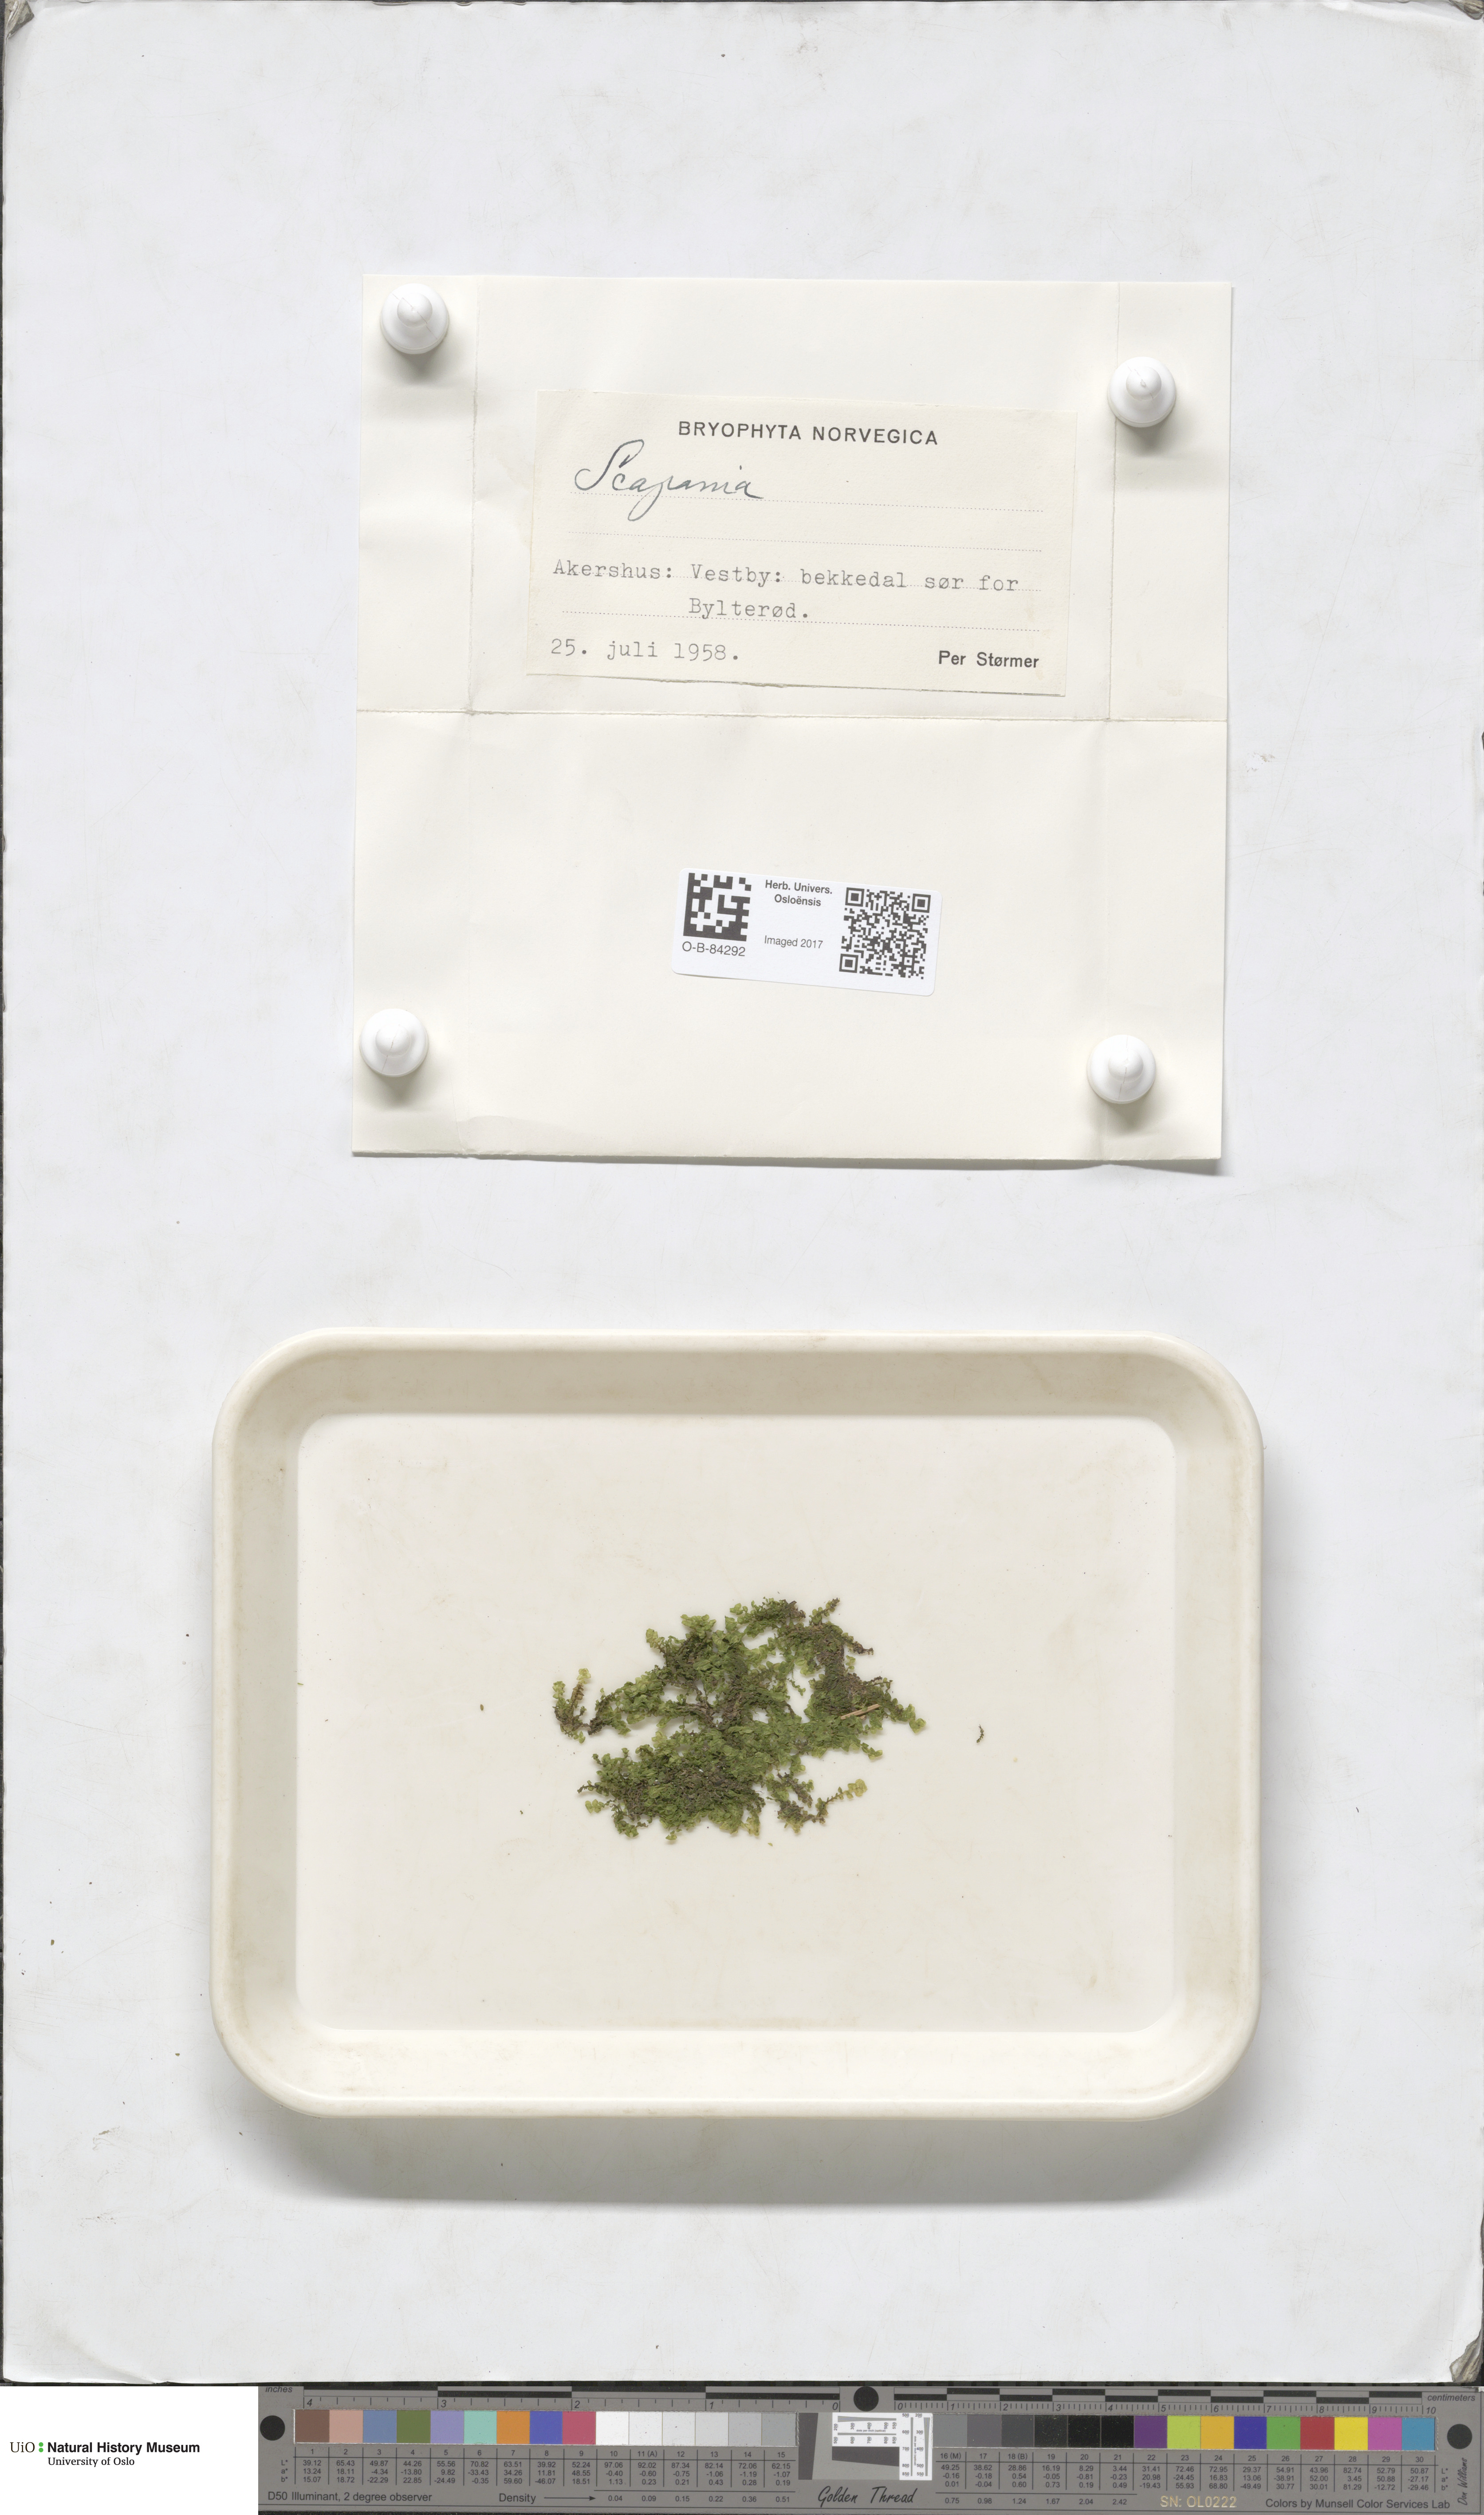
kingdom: Plantae
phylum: Marchantiophyta
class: Jungermanniopsida
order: Jungermanniales
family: Scapaniaceae
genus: Scapania
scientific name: Scapania
